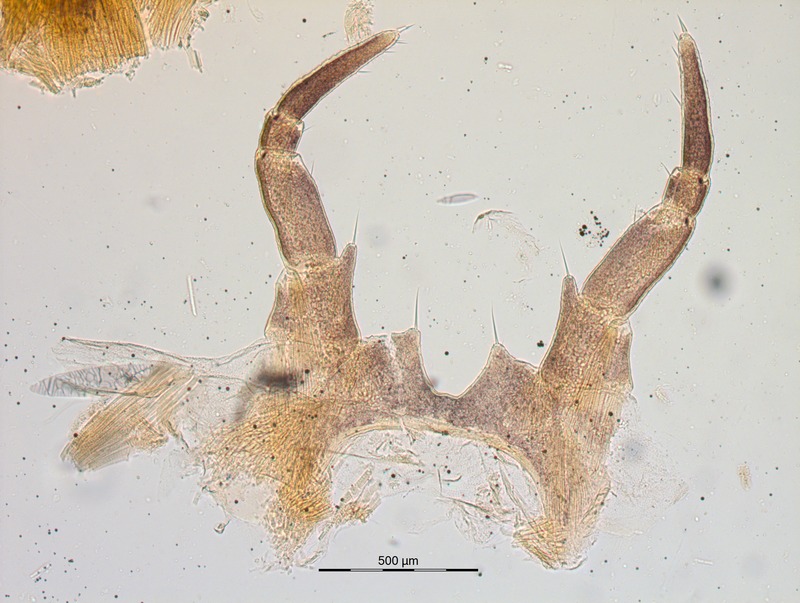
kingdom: Animalia
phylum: Arthropoda
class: Diplopoda
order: Glomerida
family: Glomeridae
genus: Glomeris
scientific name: Glomeris conspersa
